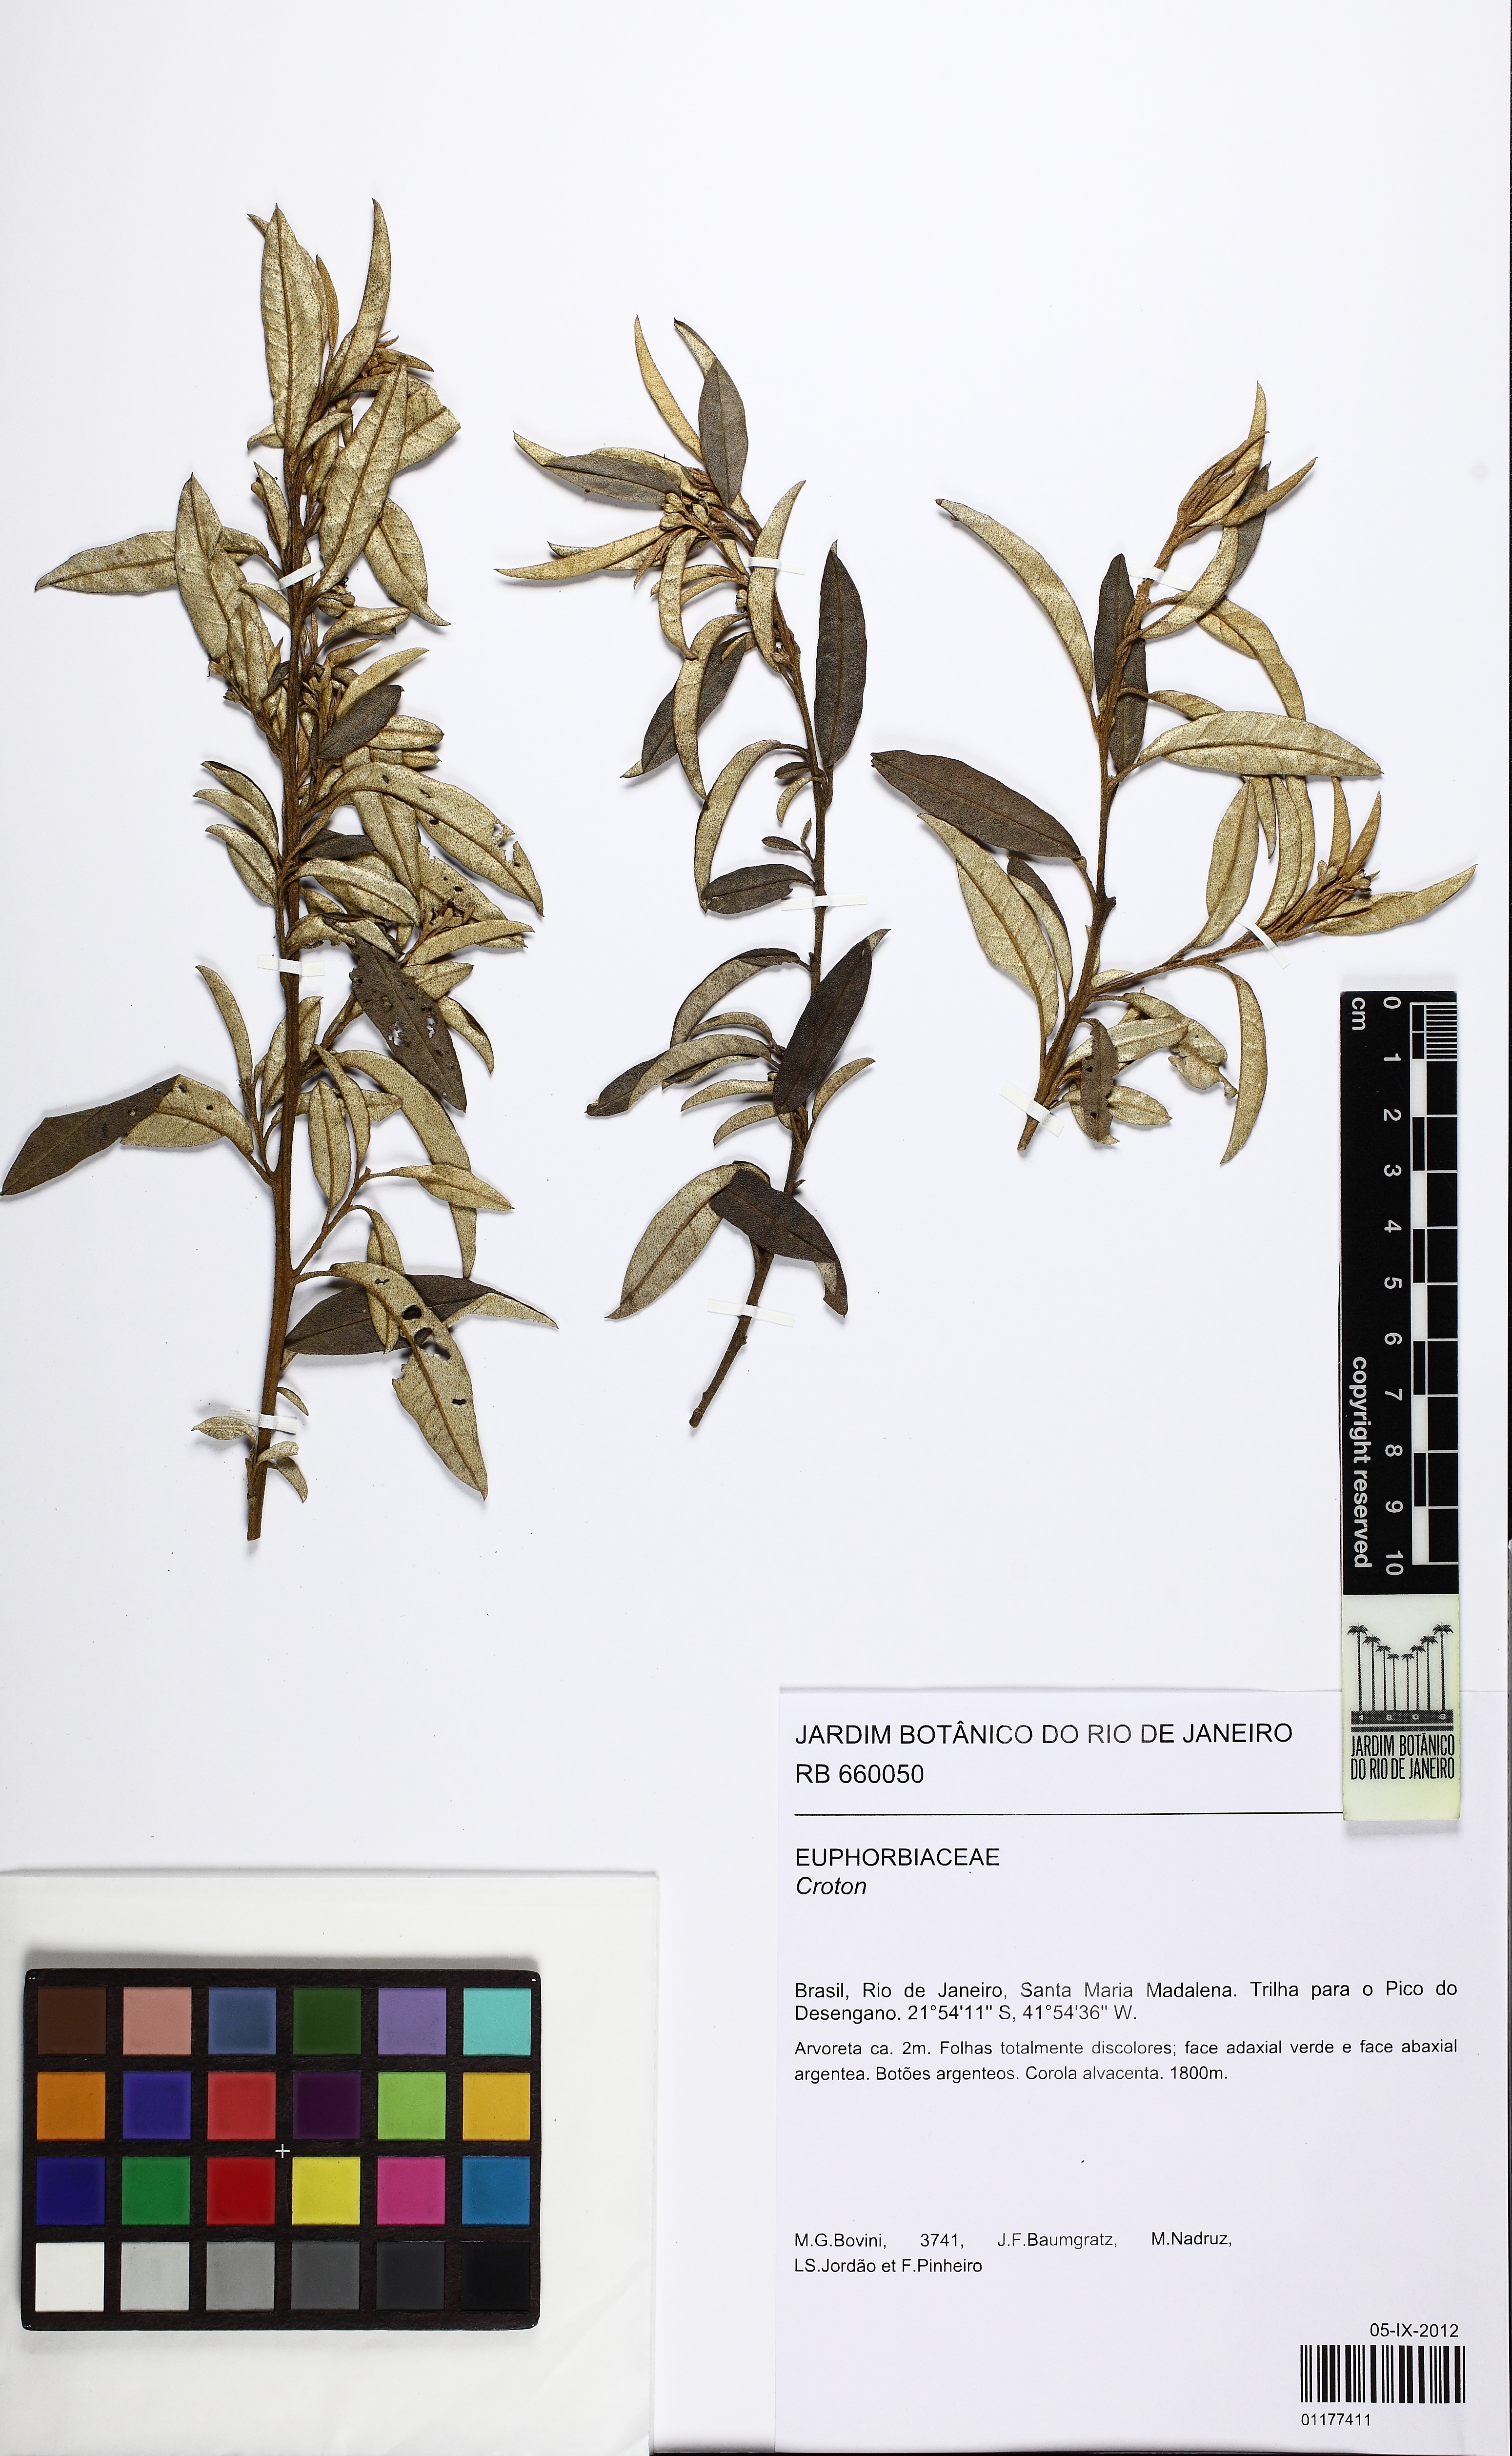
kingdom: Plantae
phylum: Tracheophyta
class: Magnoliopsida
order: Malpighiales
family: Euphorbiaceae
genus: Croton
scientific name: Croton erythroxyloides
